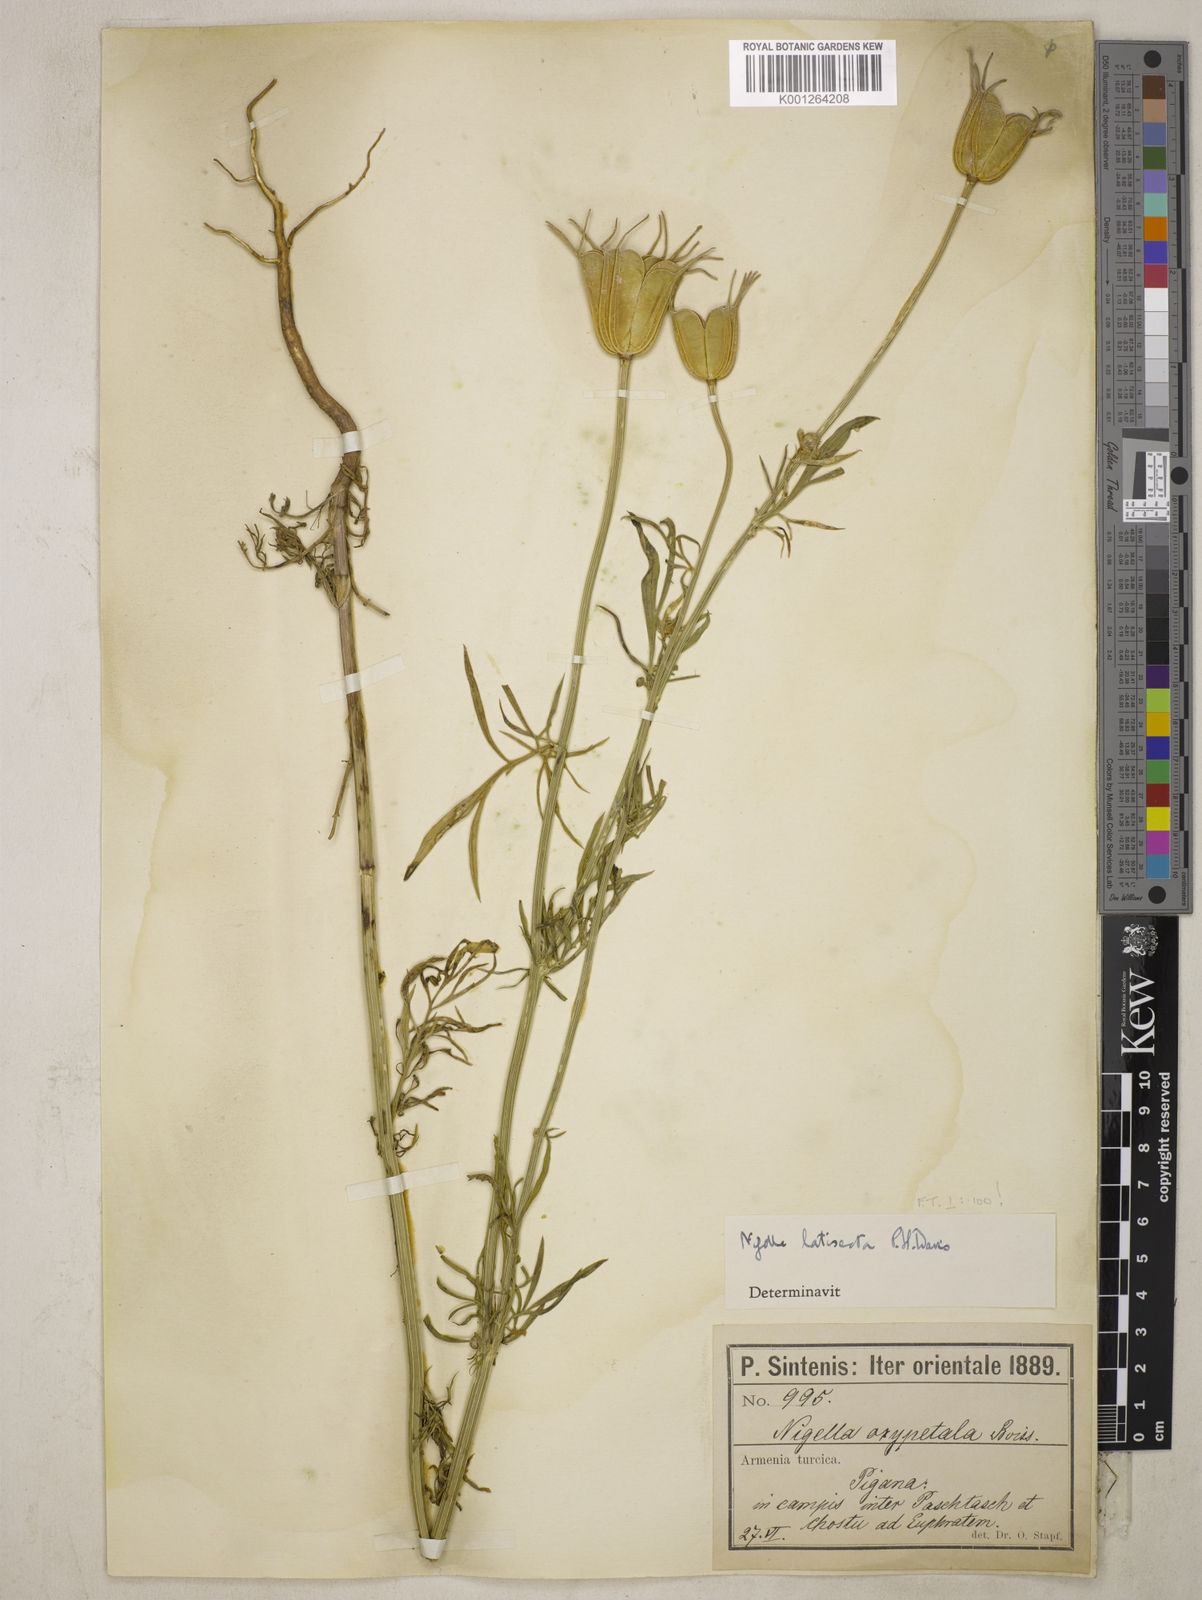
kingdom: Plantae
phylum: Tracheophyta
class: Magnoliopsida
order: Ranunculales
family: Ranunculaceae
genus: Nigella
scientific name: Nigella oxypetala
